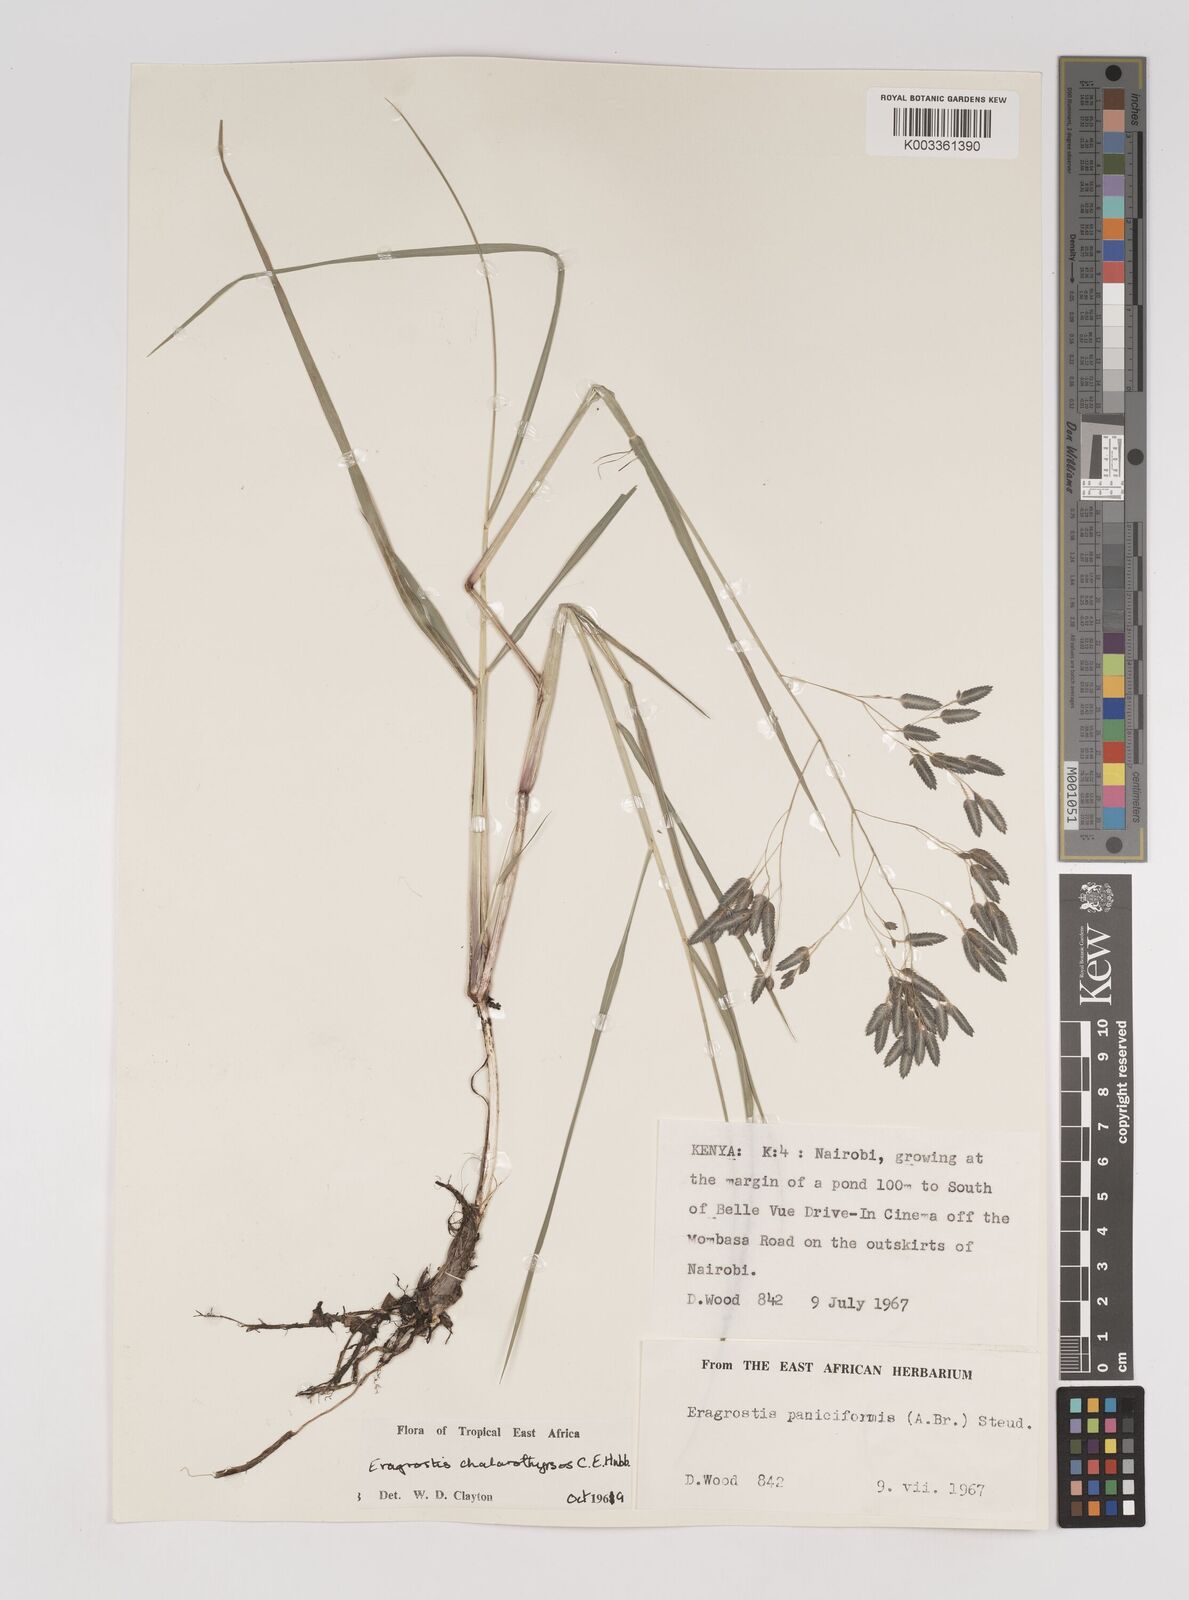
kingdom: Plantae
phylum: Tracheophyta
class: Liliopsida
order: Poales
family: Poaceae
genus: Eragrostis
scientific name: Eragrostis chalarothyrsos
